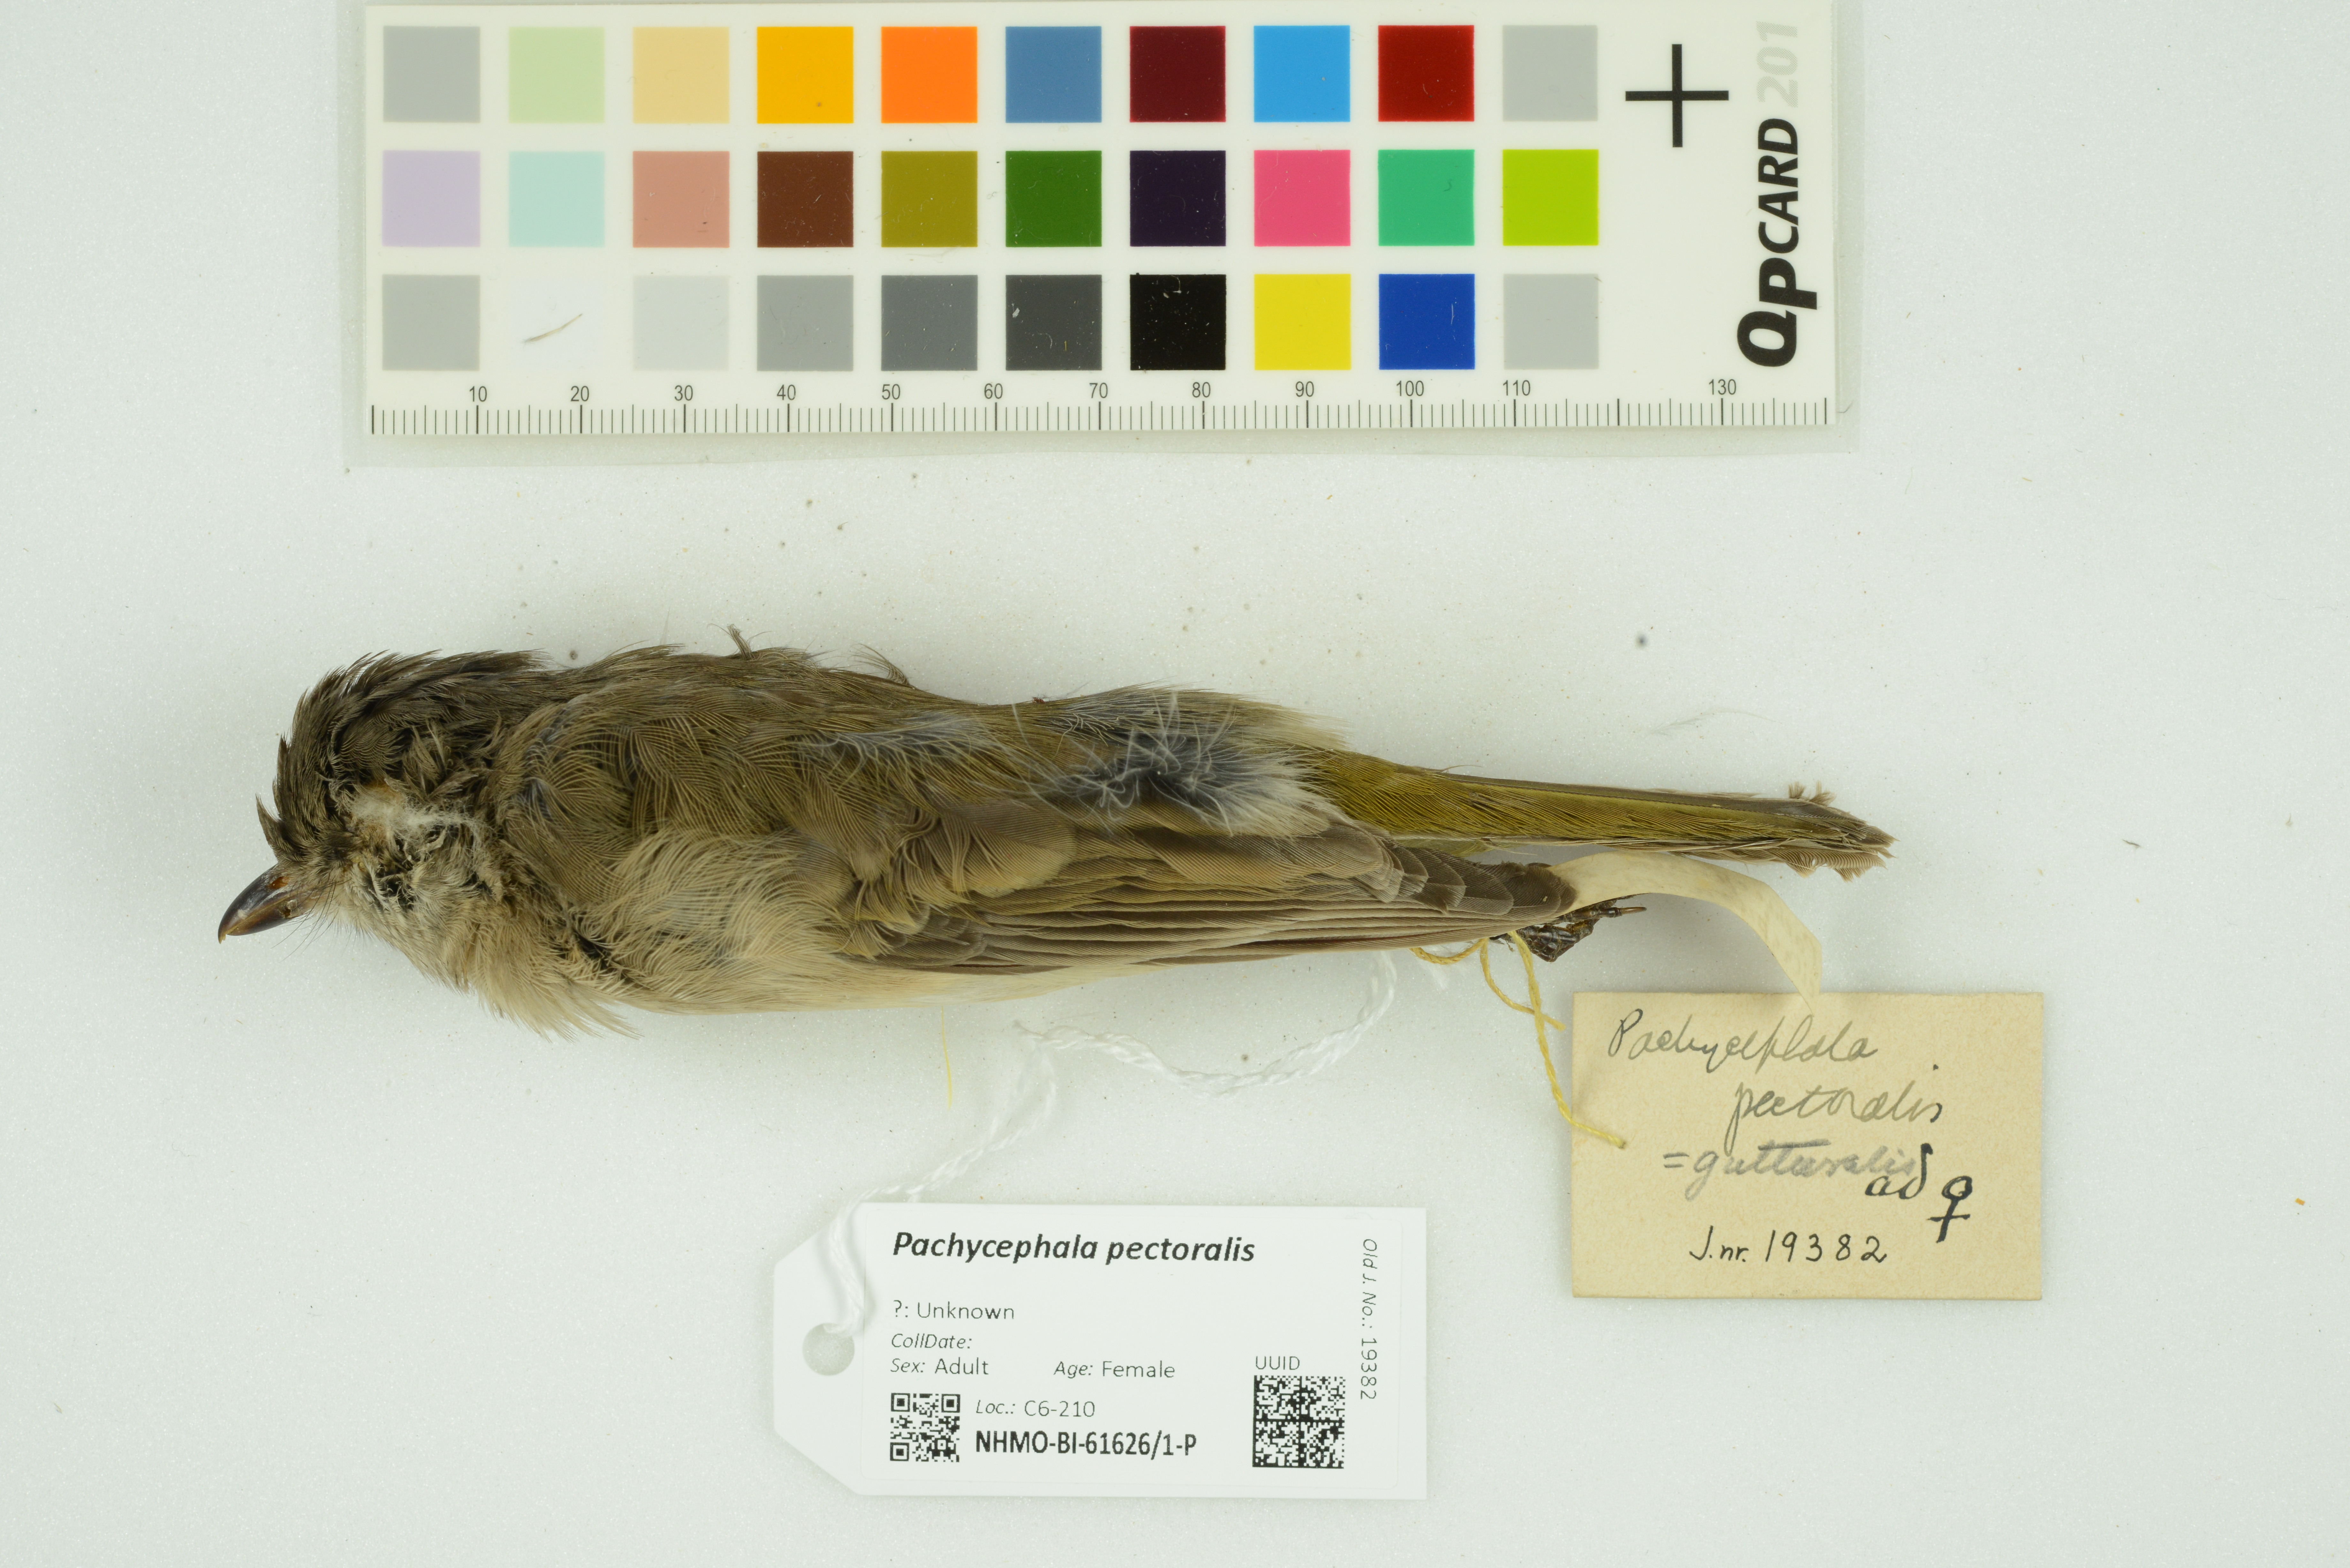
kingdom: Animalia
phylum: Chordata
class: Aves
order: Passeriformes
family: Pachycephalidae
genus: Pachycephala
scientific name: Pachycephala pectoralis
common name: Australian golden whistler
